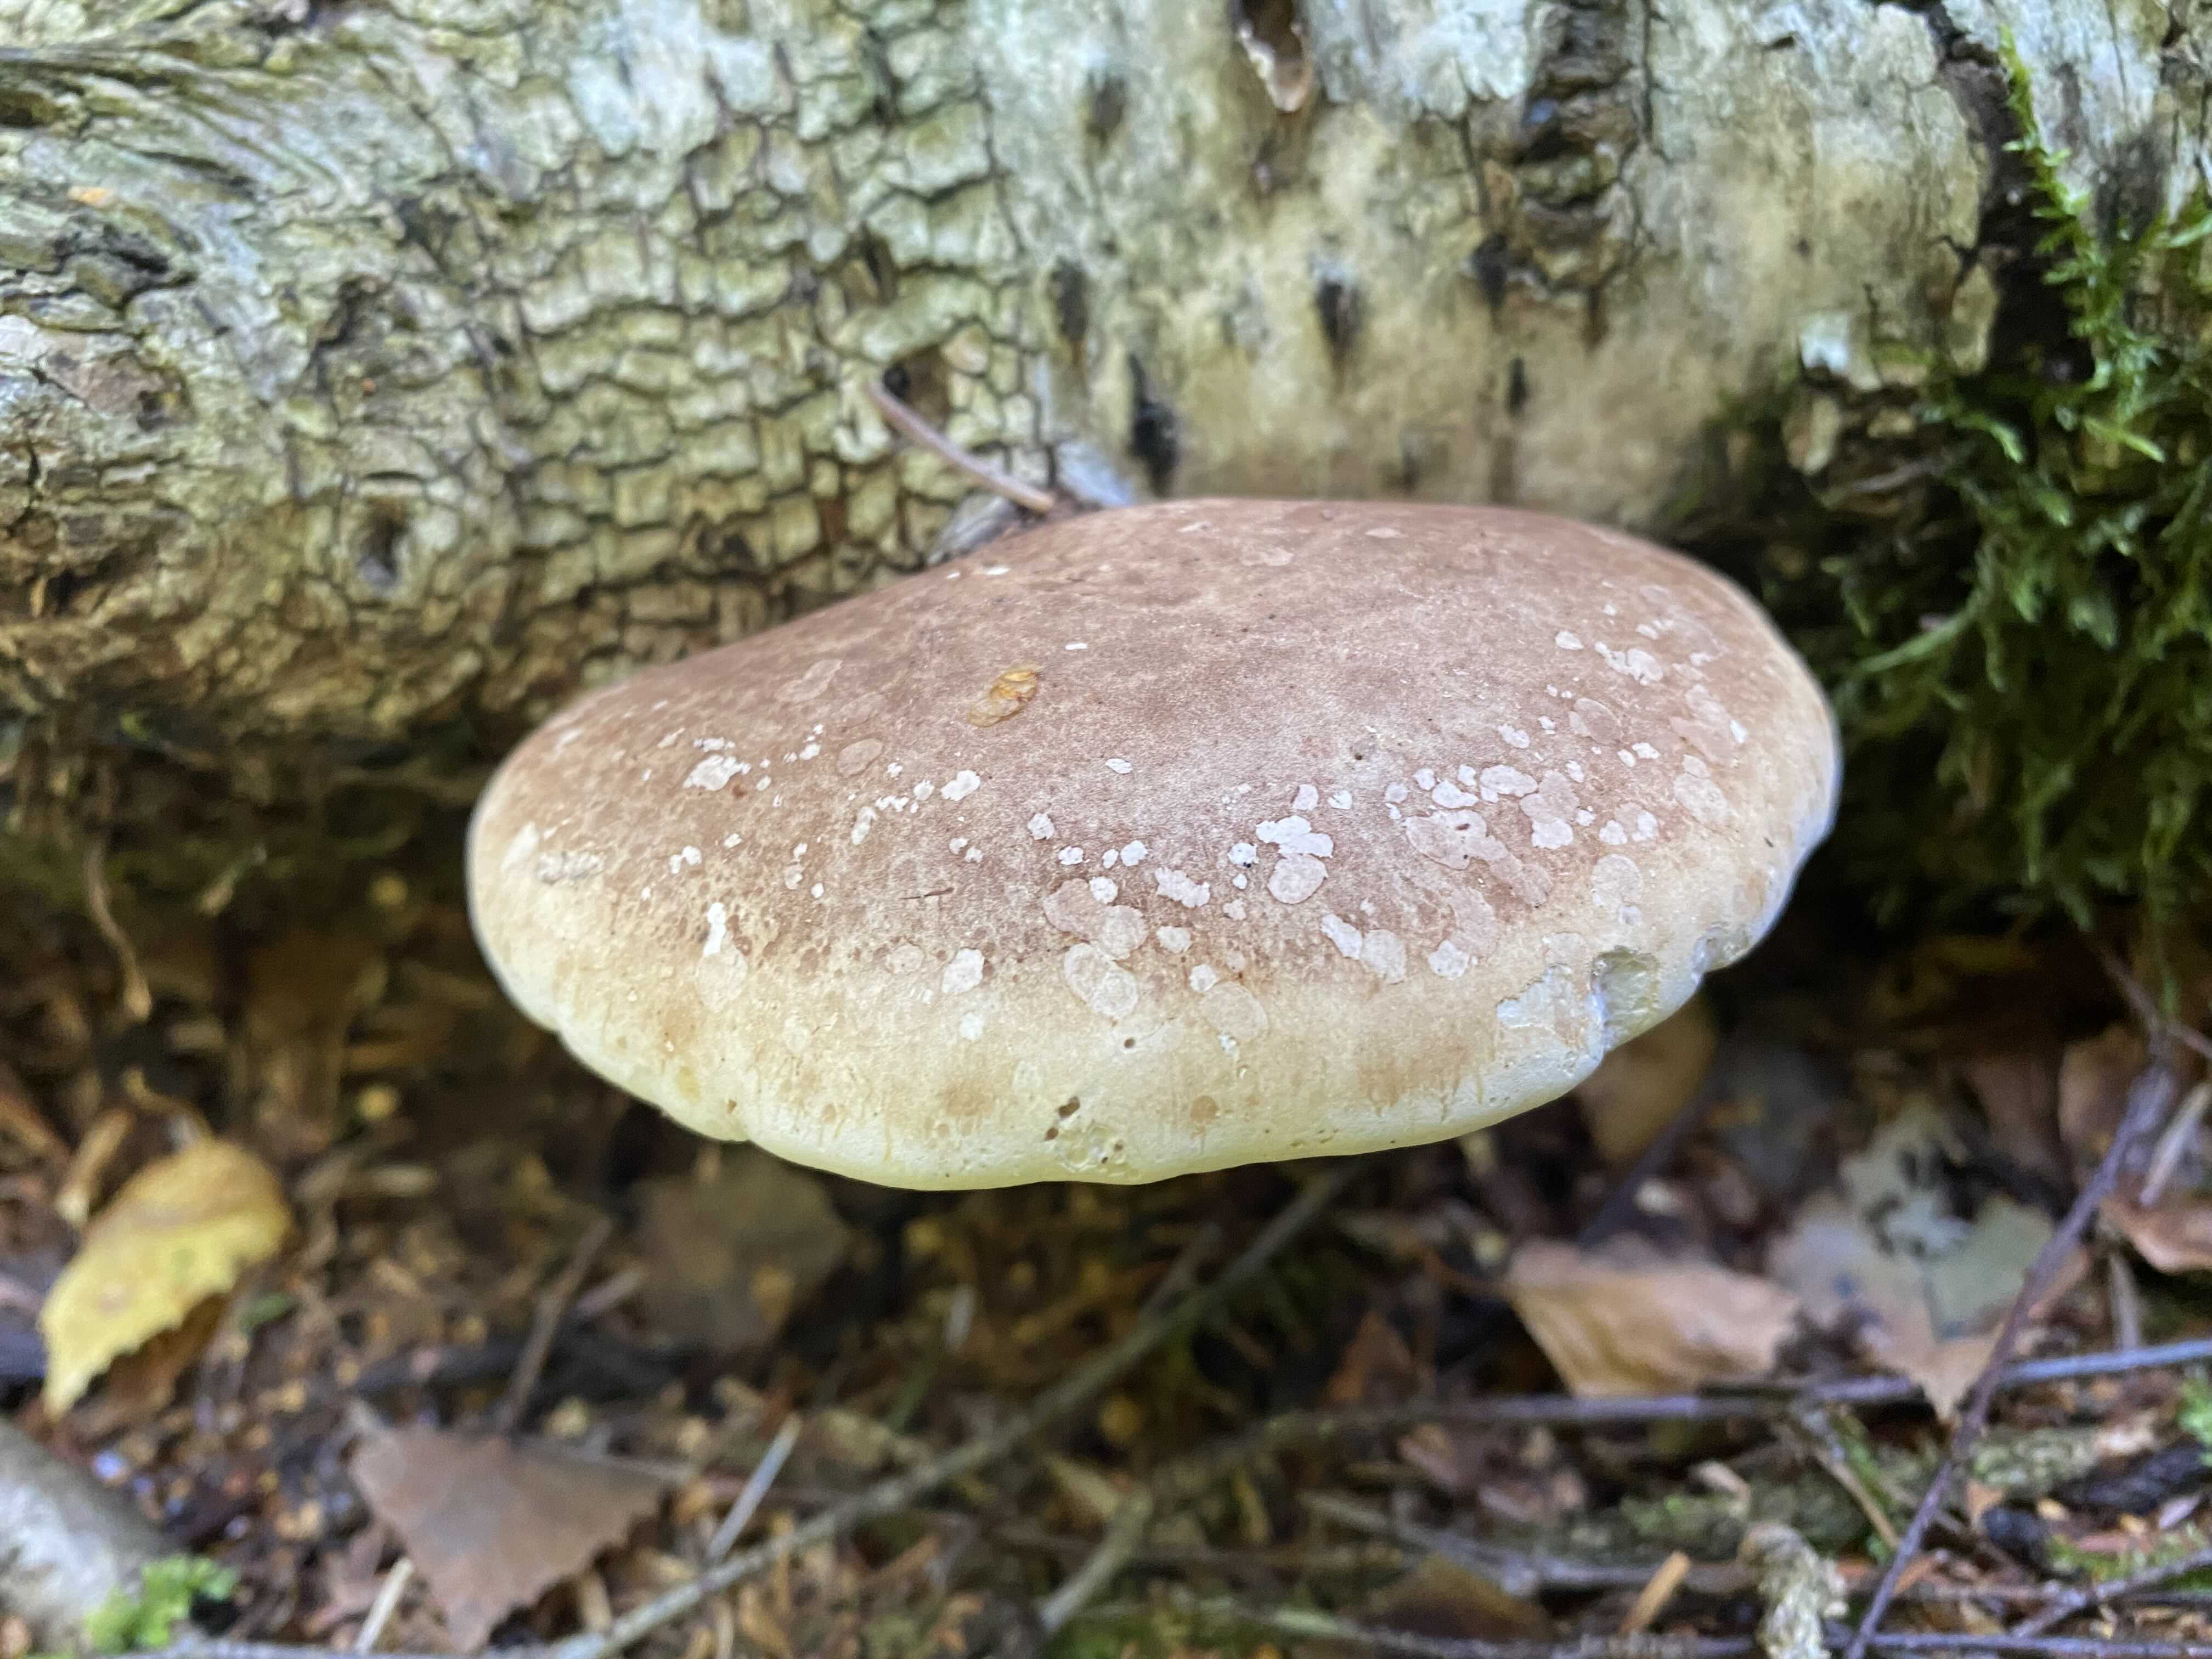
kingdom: Fungi
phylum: Basidiomycota
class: Agaricomycetes
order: Polyporales
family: Fomitopsidaceae
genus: Fomitopsis
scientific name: Fomitopsis betulina
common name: birkeporesvamp
